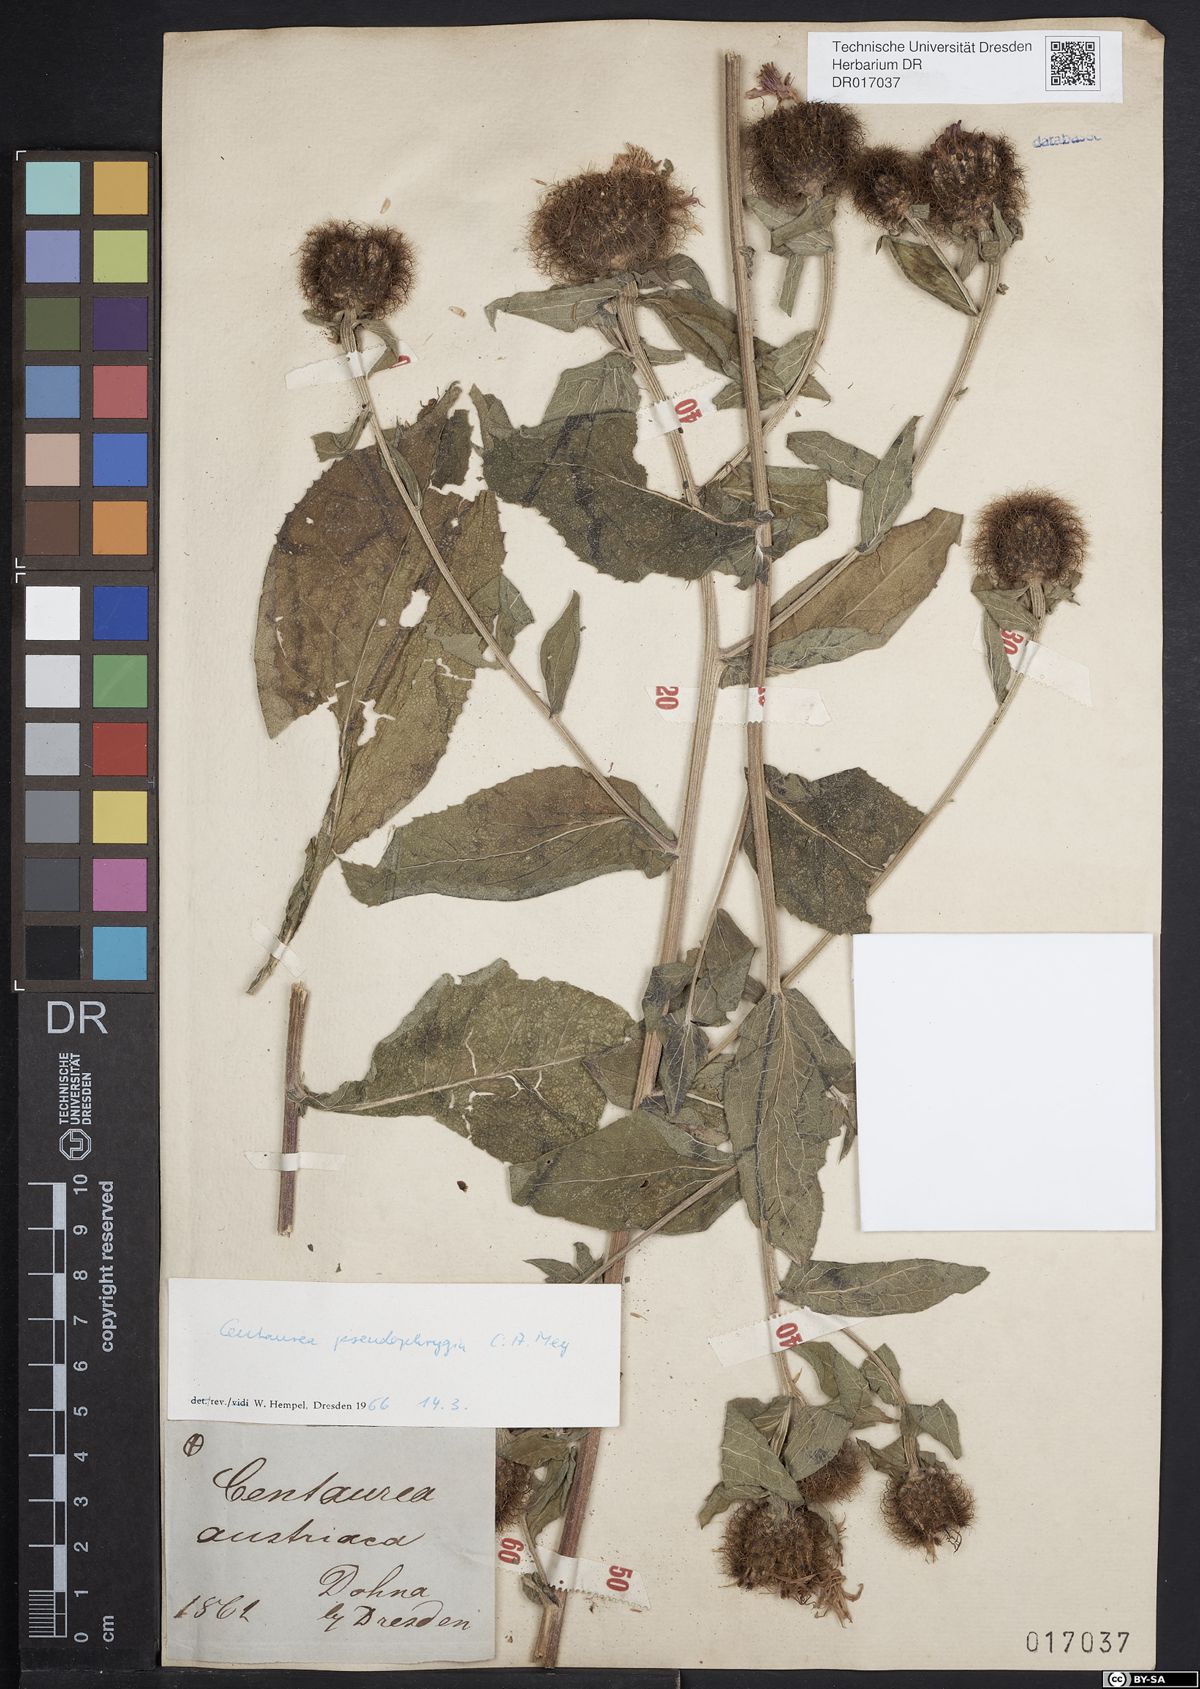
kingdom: Plantae
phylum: Tracheophyta
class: Magnoliopsida
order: Asterales
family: Asteraceae
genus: Centaurea
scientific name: Centaurea pseudophrygia
